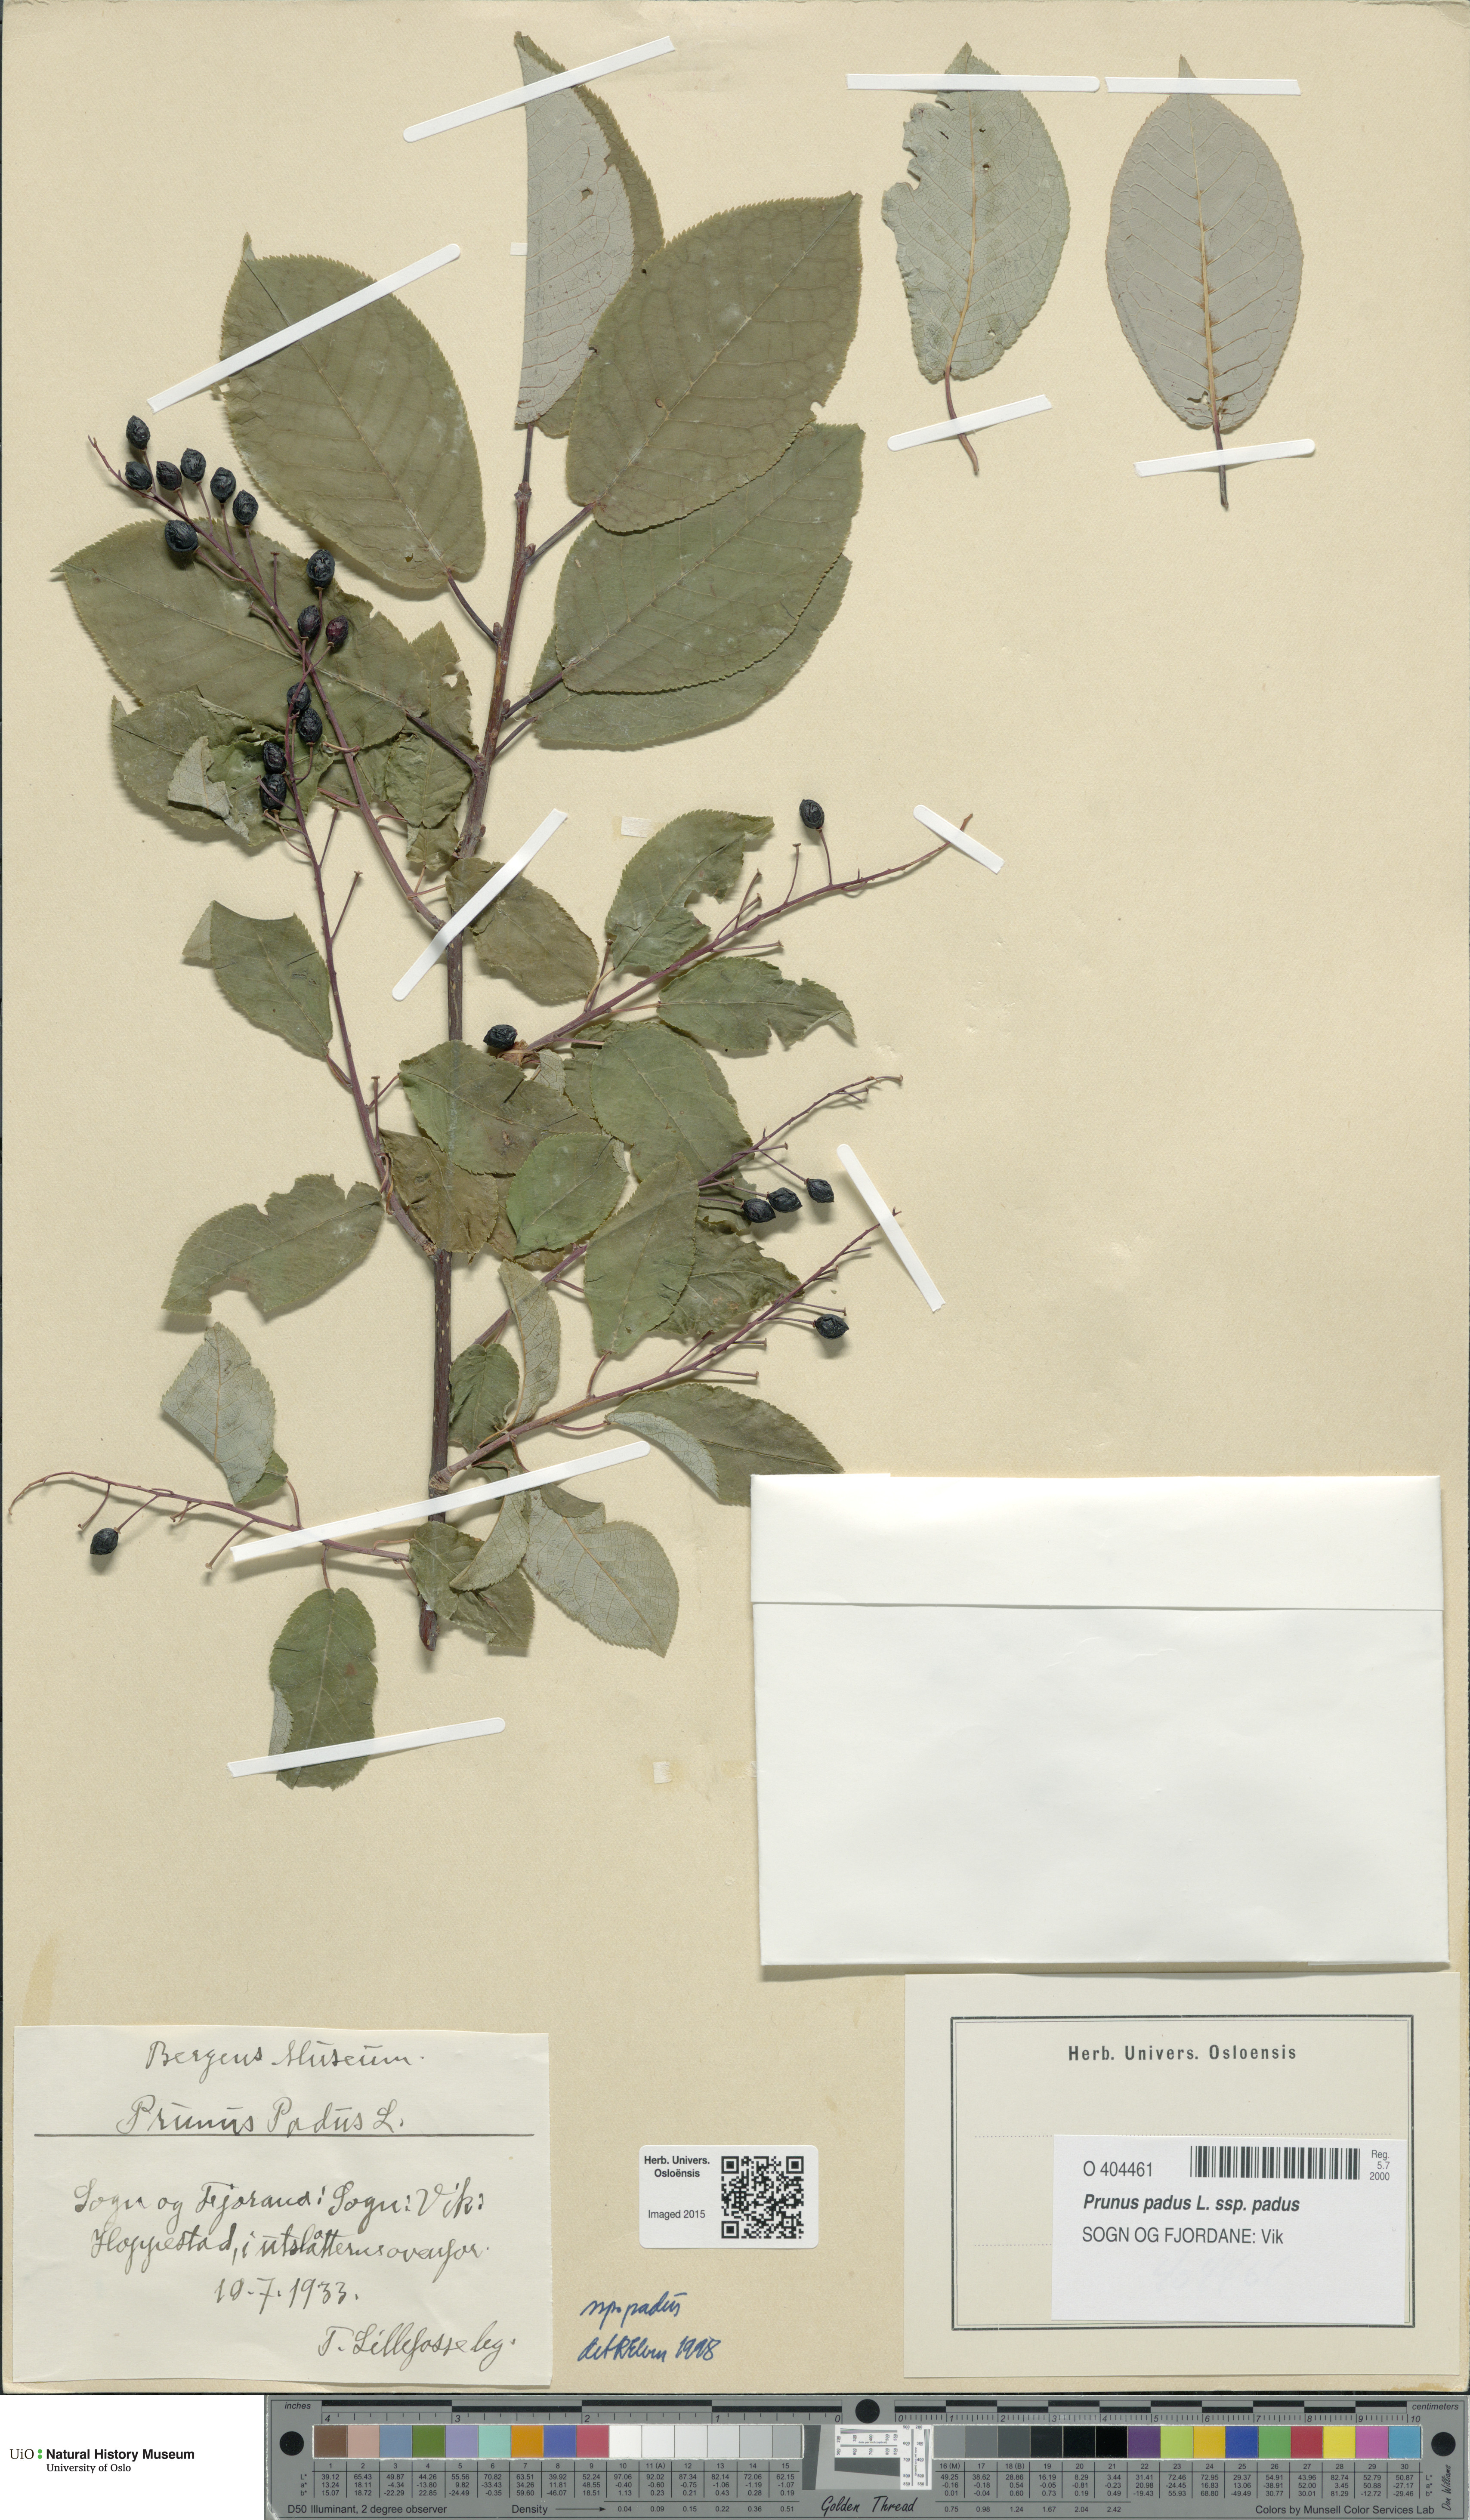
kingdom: Plantae
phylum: Tracheophyta
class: Magnoliopsida
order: Rosales
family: Rosaceae
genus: Prunus
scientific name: Prunus padus
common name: Bird cherry
